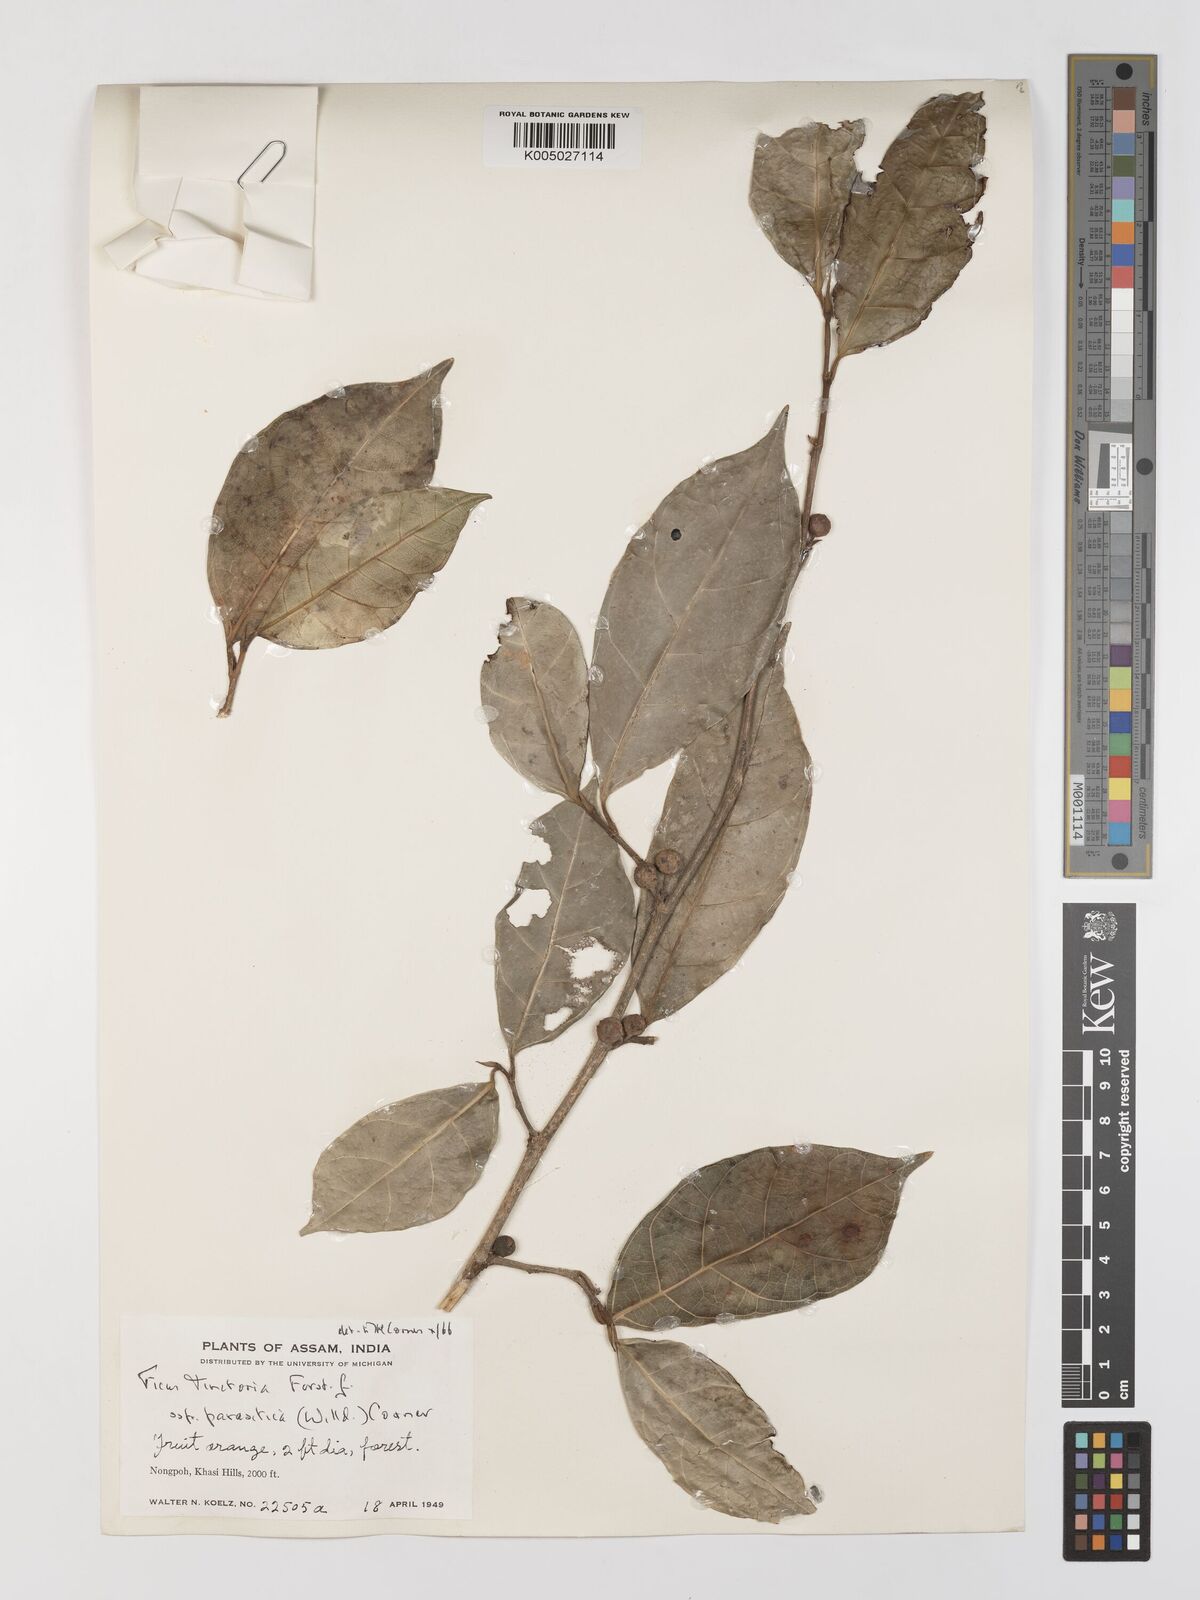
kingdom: Plantae
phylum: Tracheophyta
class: Magnoliopsida
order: Rosales
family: Moraceae
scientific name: Moraceae
